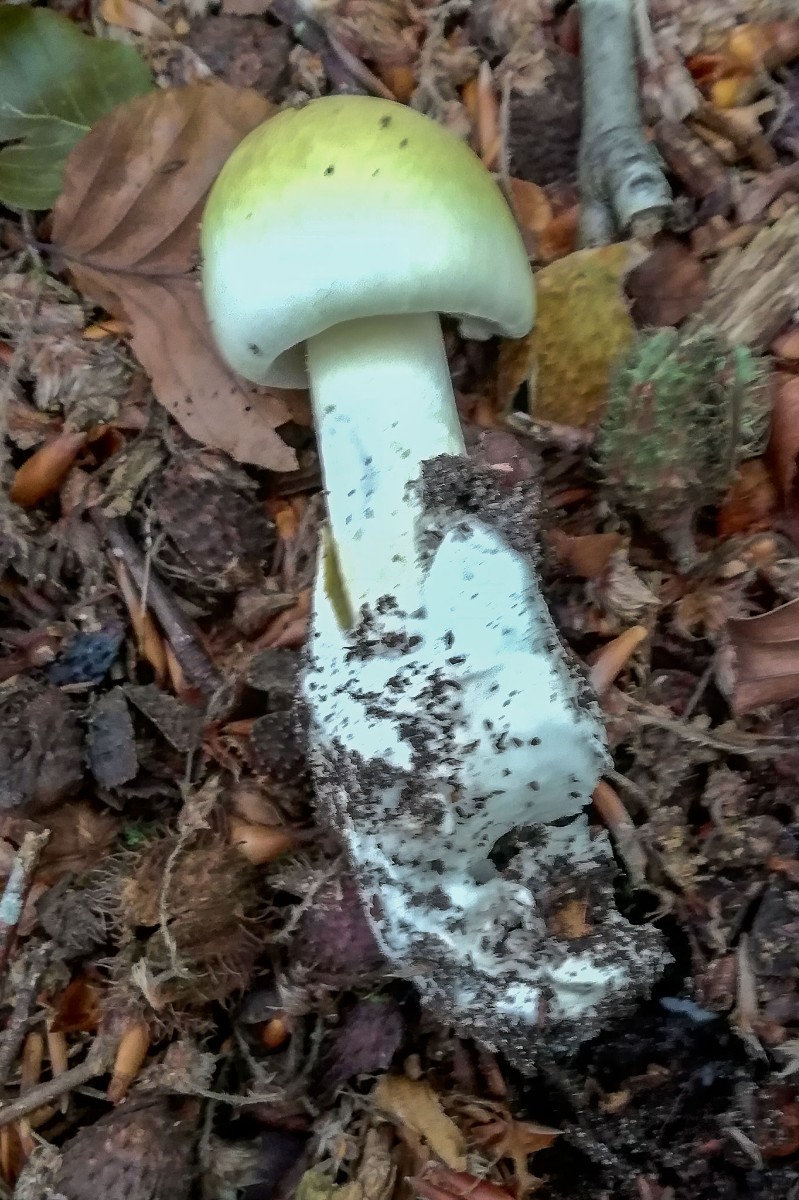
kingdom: Fungi
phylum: Basidiomycota
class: Agaricomycetes
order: Agaricales
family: Amanitaceae
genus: Amanita
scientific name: Amanita phalloides
